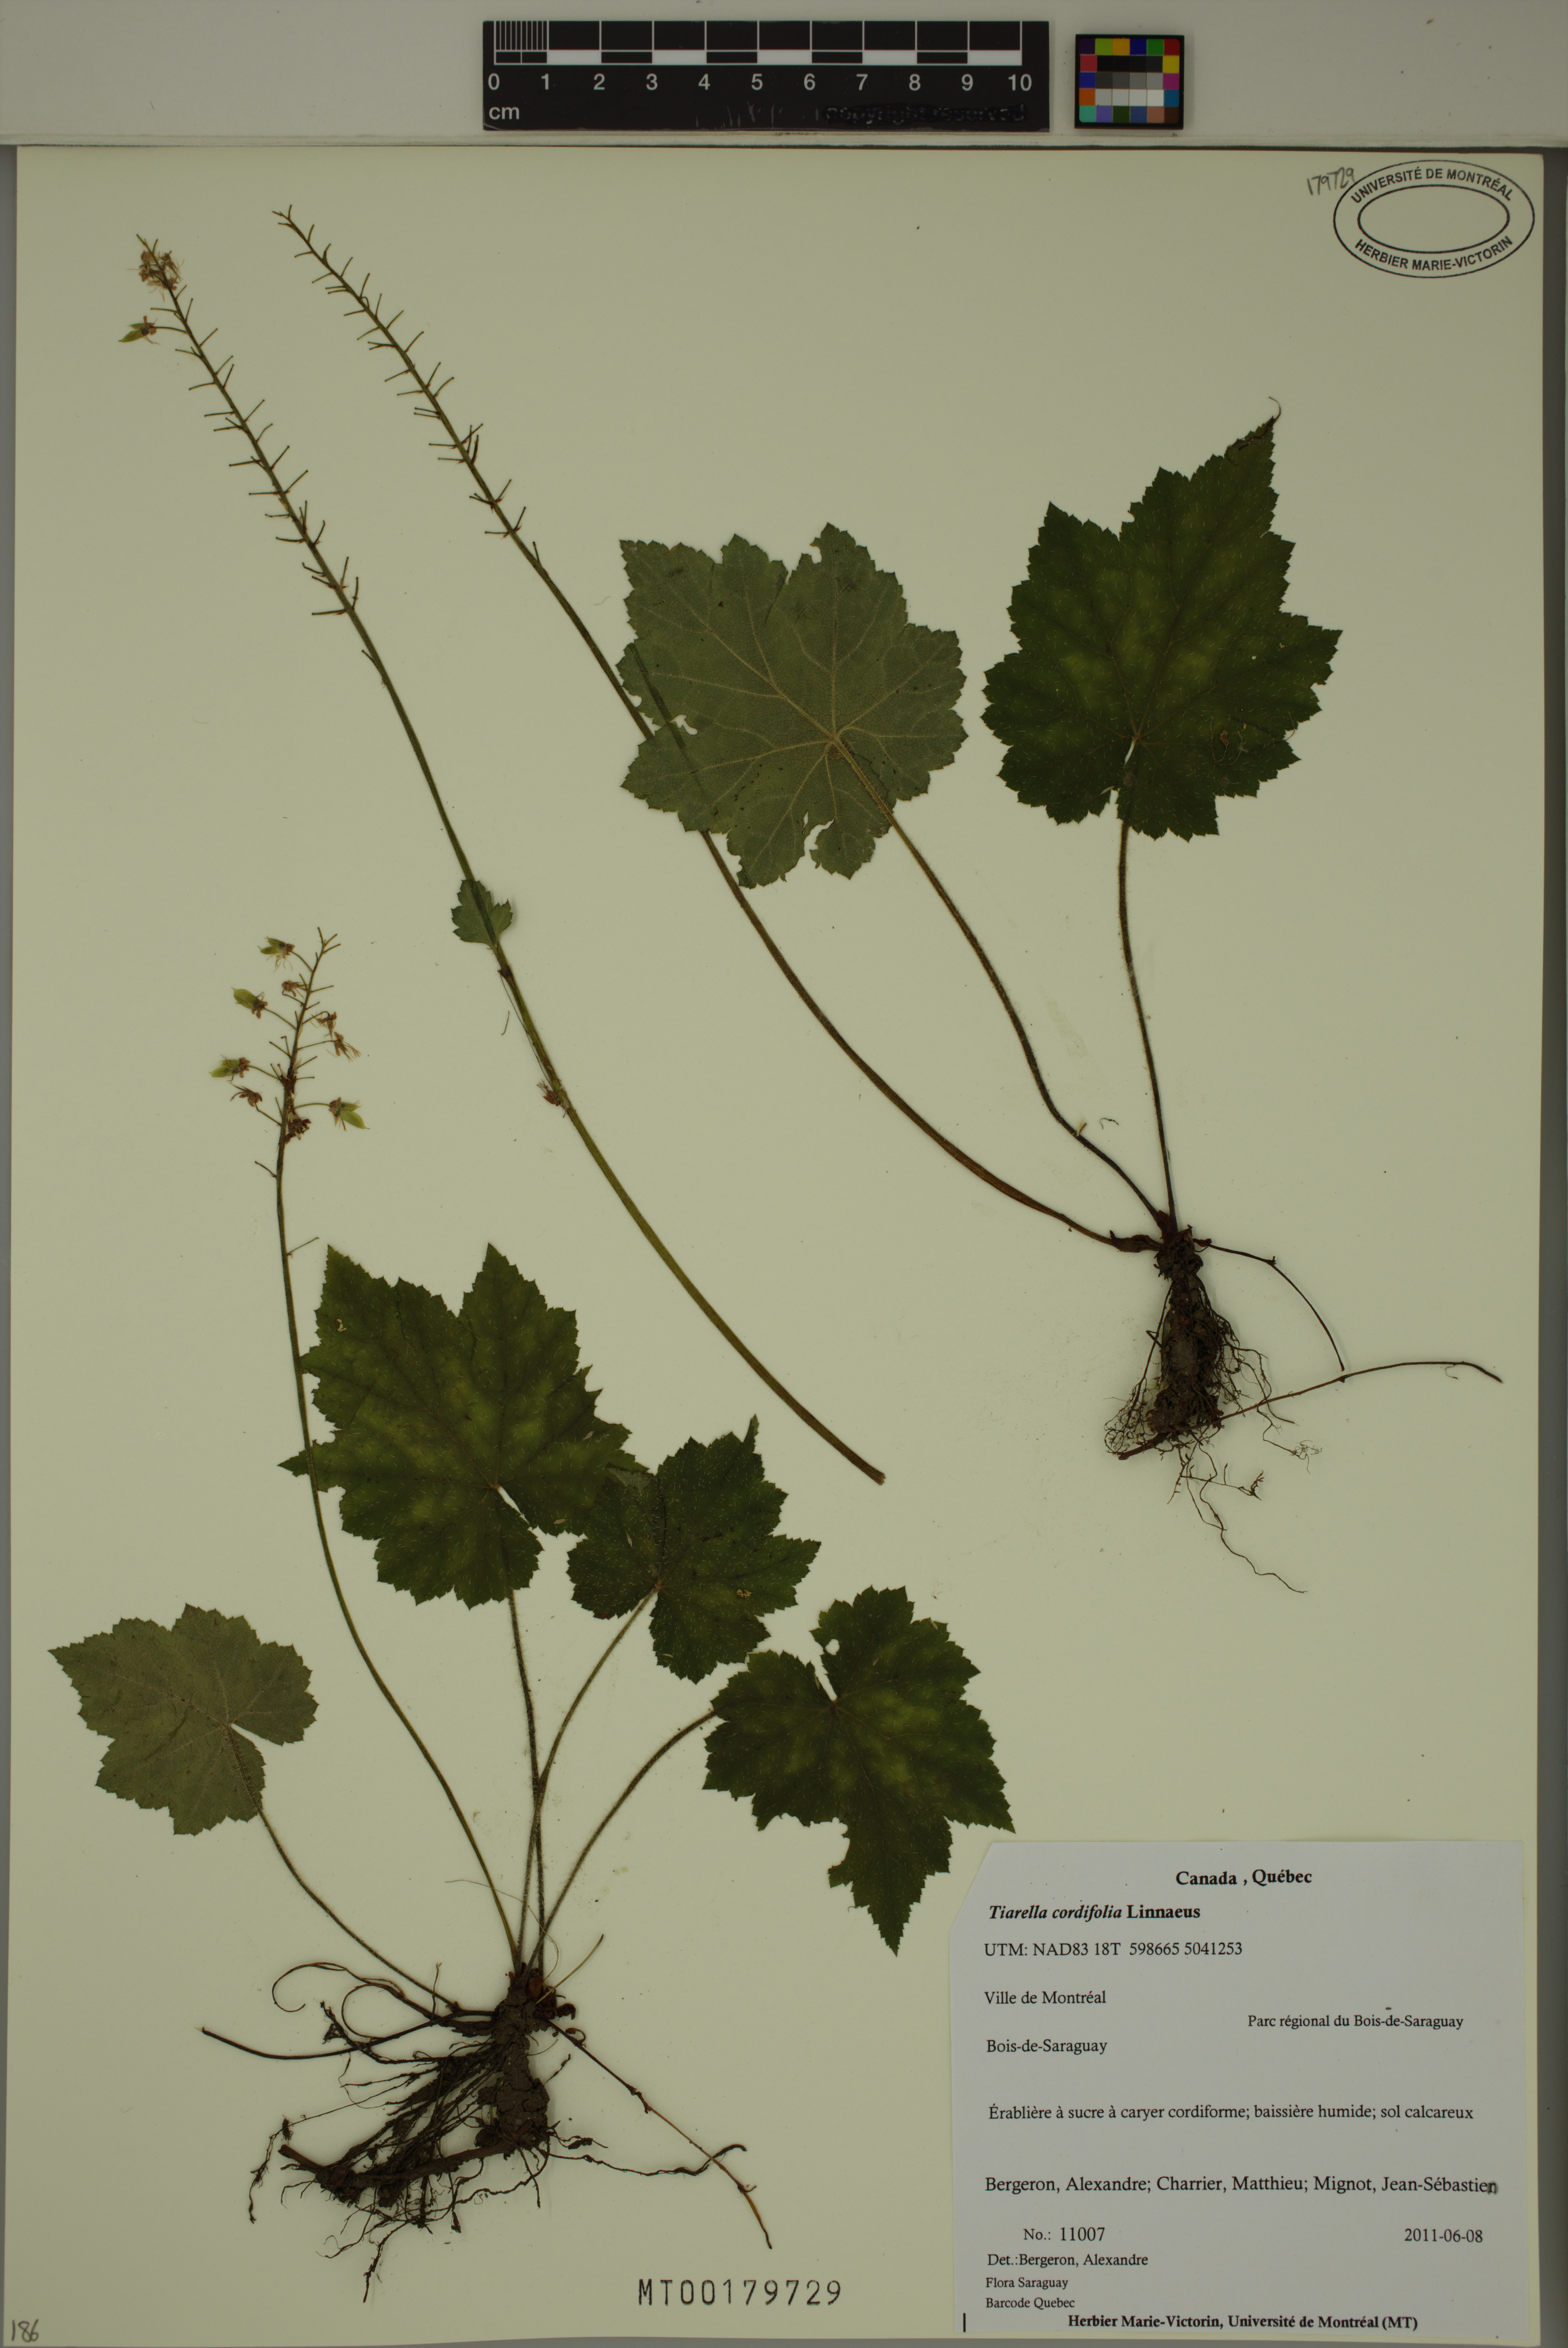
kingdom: Plantae
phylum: Tracheophyta
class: Magnoliopsida
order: Saxifragales
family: Saxifragaceae
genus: Tiarella
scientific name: Tiarella cordifolia
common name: Foamflower
